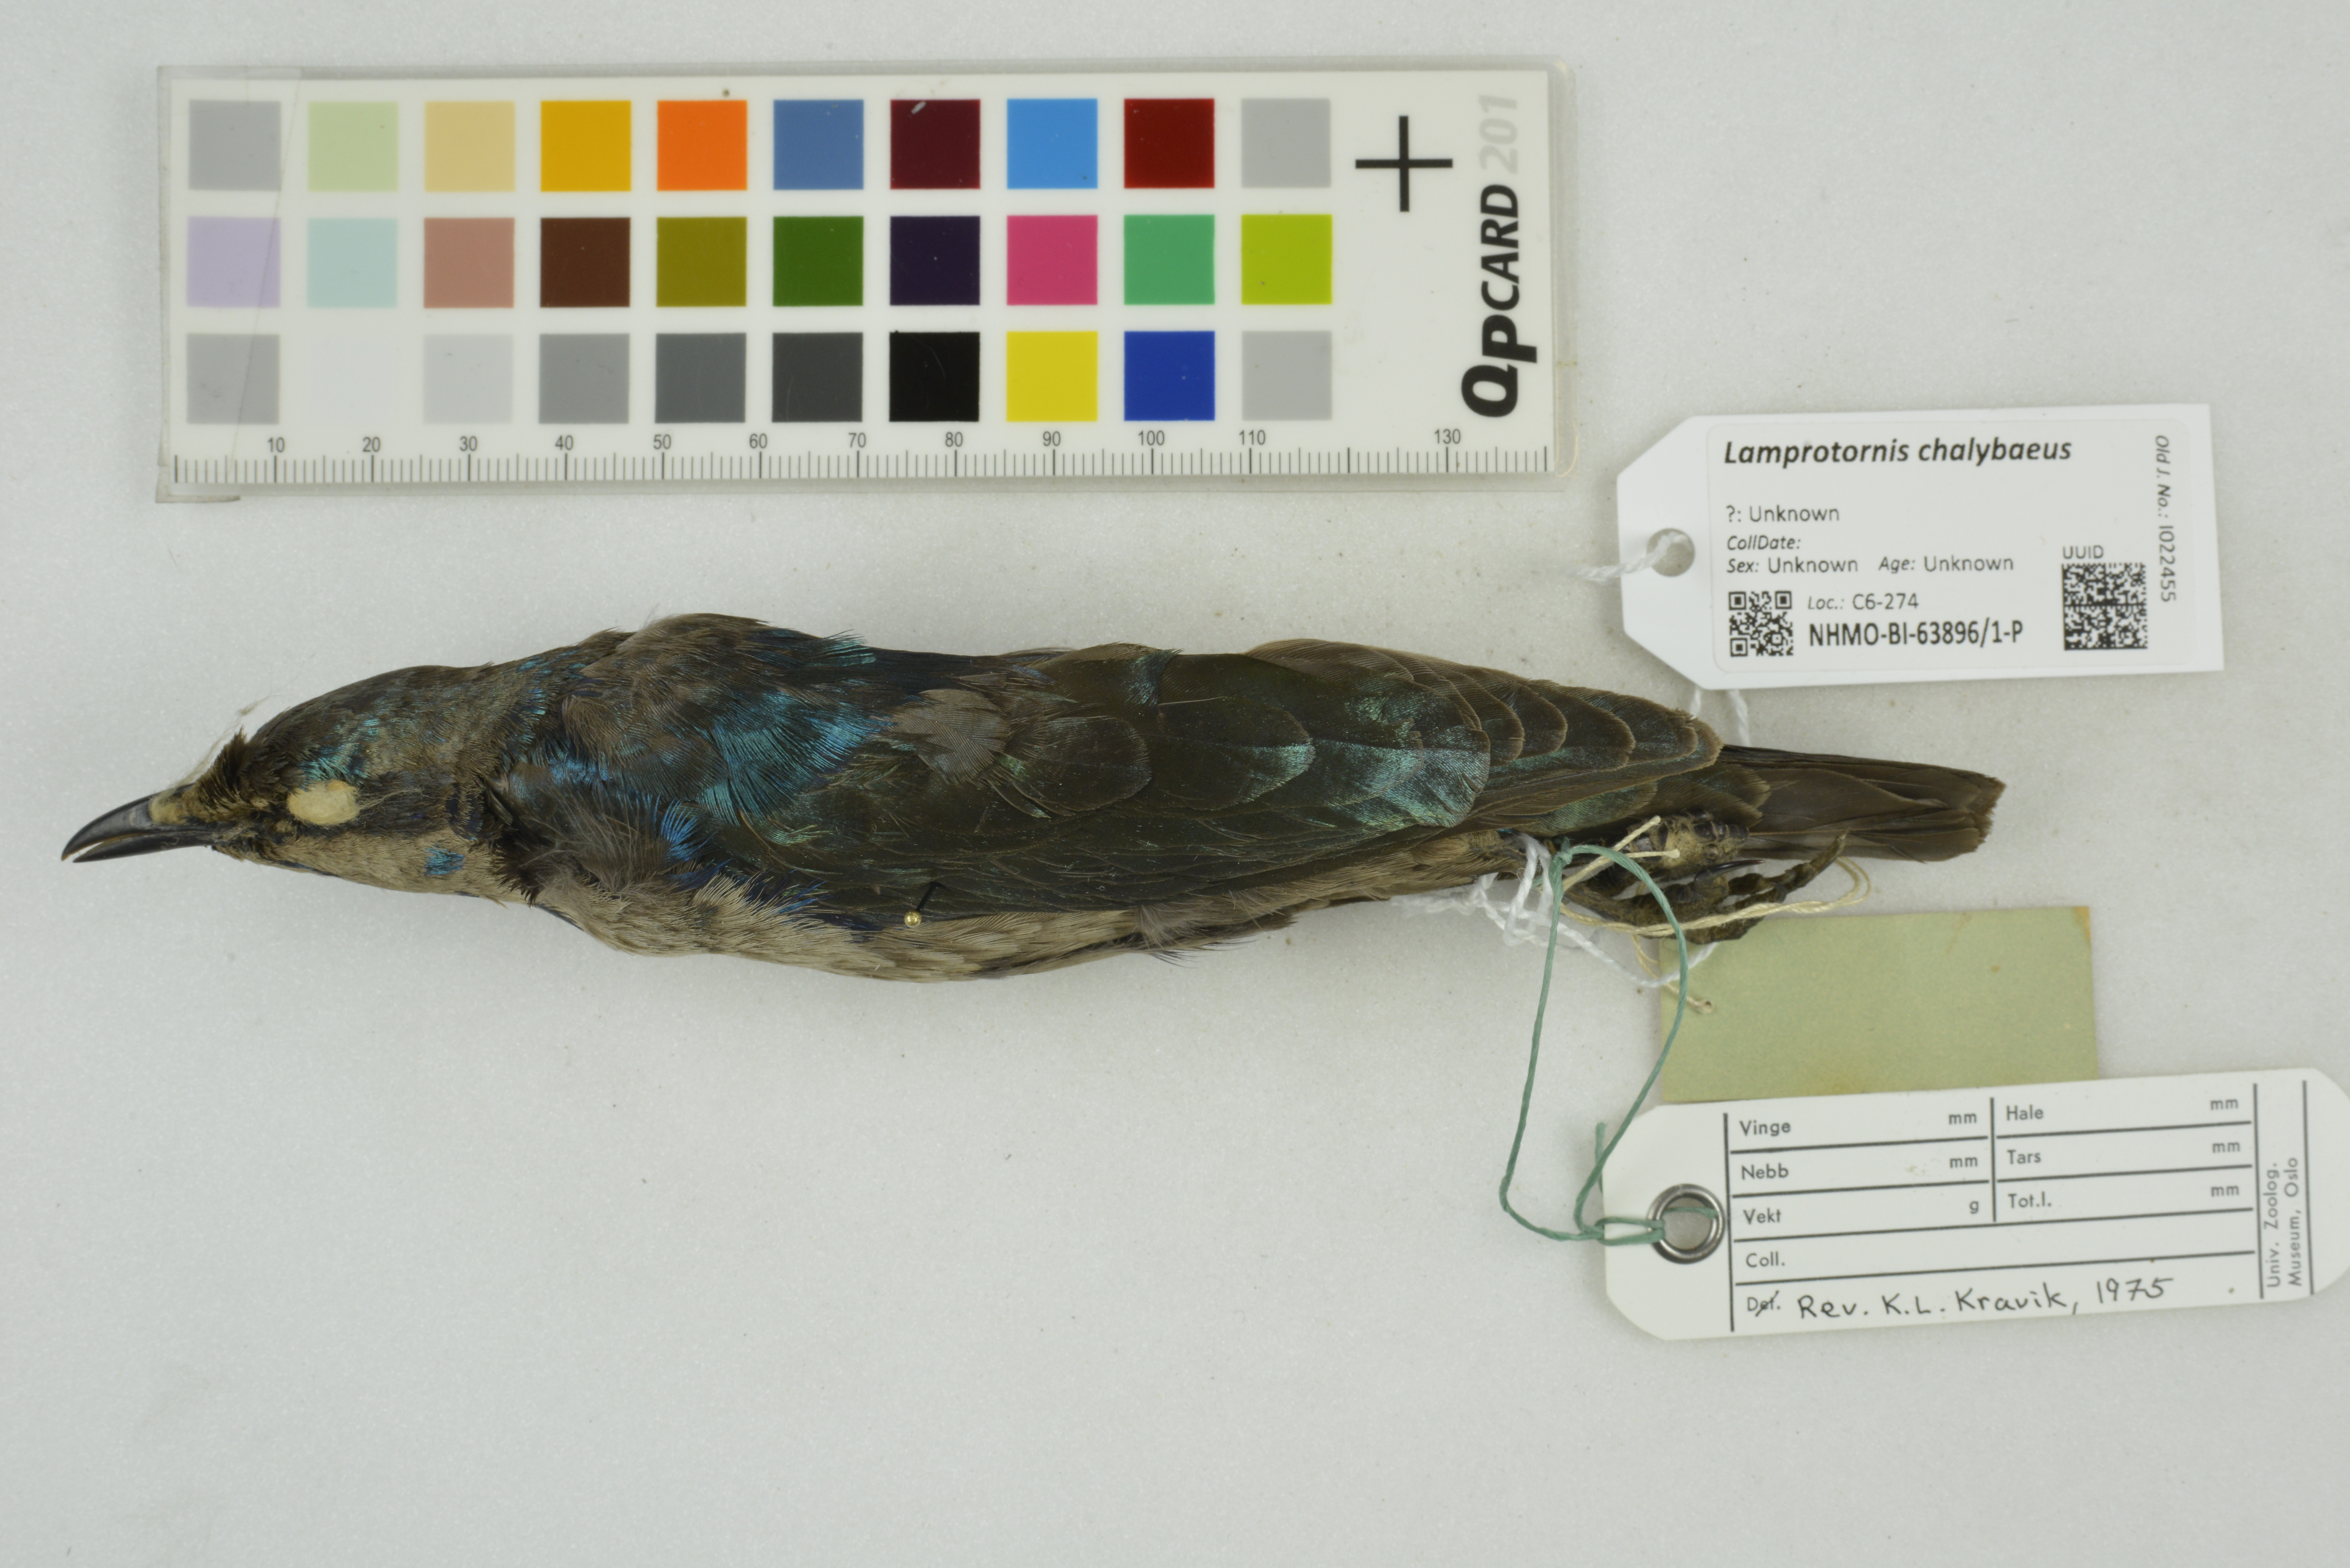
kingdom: Animalia
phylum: Chordata
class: Aves
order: Passeriformes
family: Sturnidae
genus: Lamprotornis
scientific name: Lamprotornis chalybaeus
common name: Greater blue-eared starling
